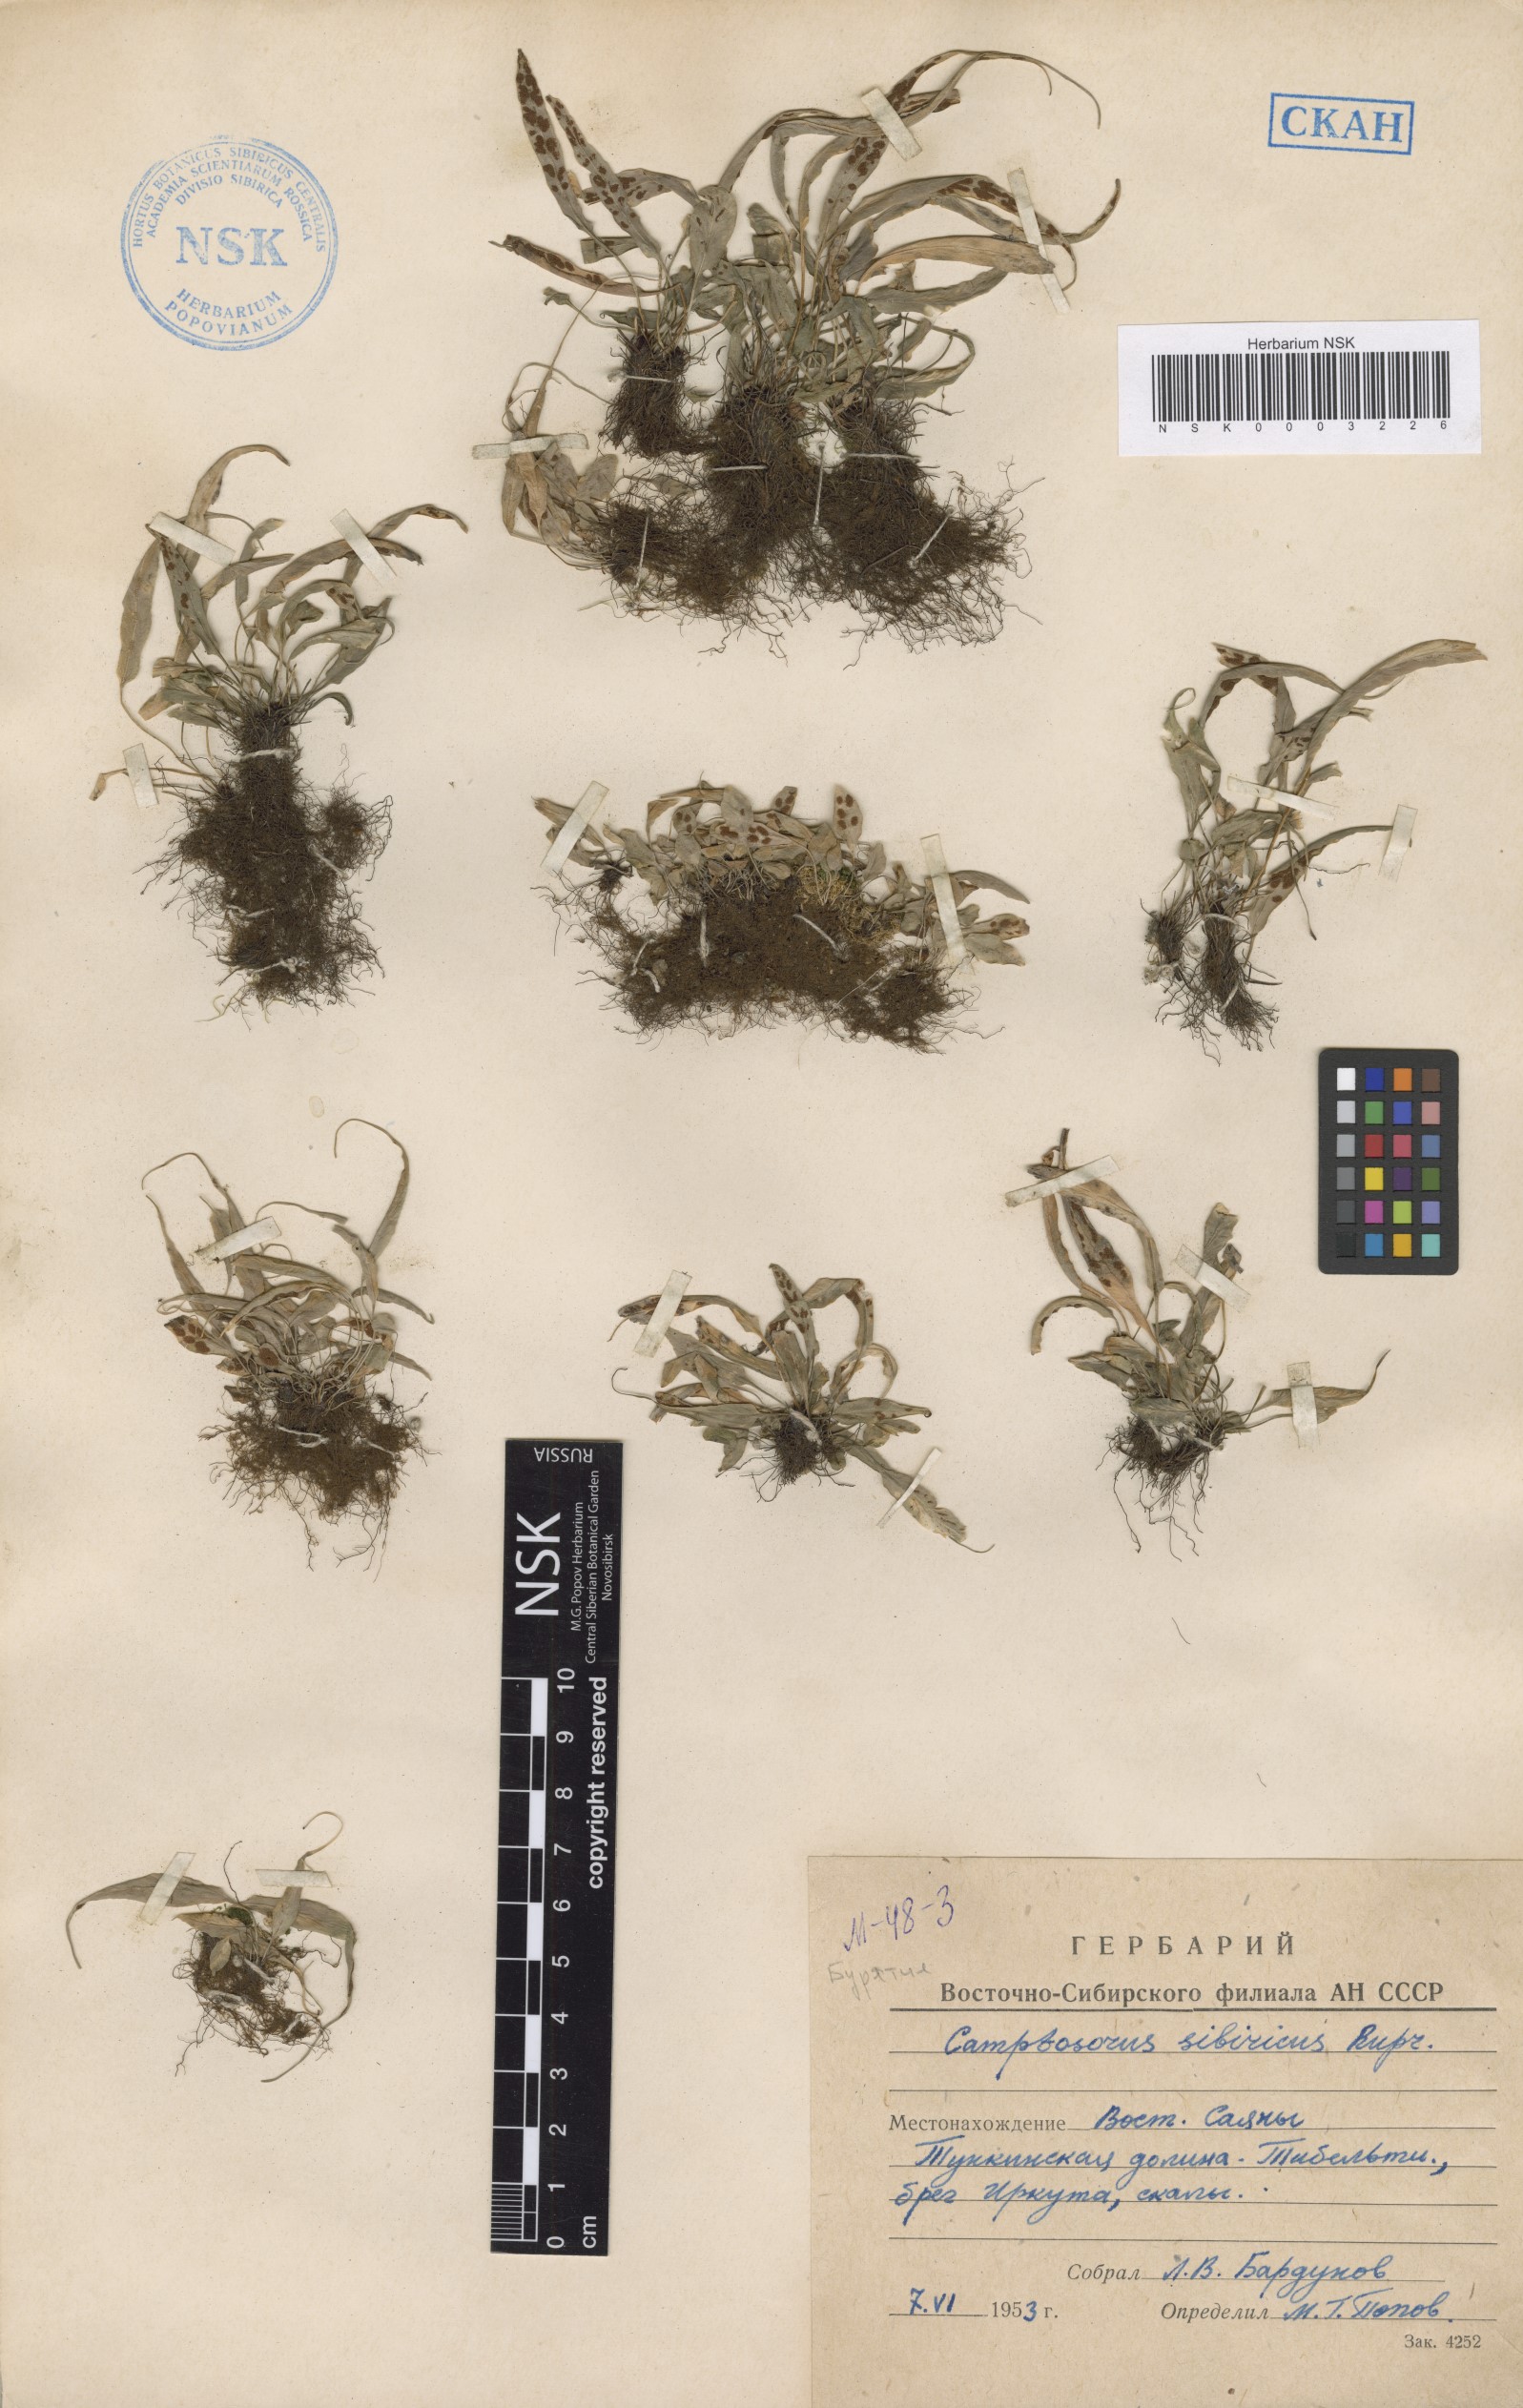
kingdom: Plantae
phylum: Tracheophyta
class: Polypodiopsida
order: Polypodiales
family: Aspleniaceae
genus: Asplenium
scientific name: Asplenium ruprechtii
